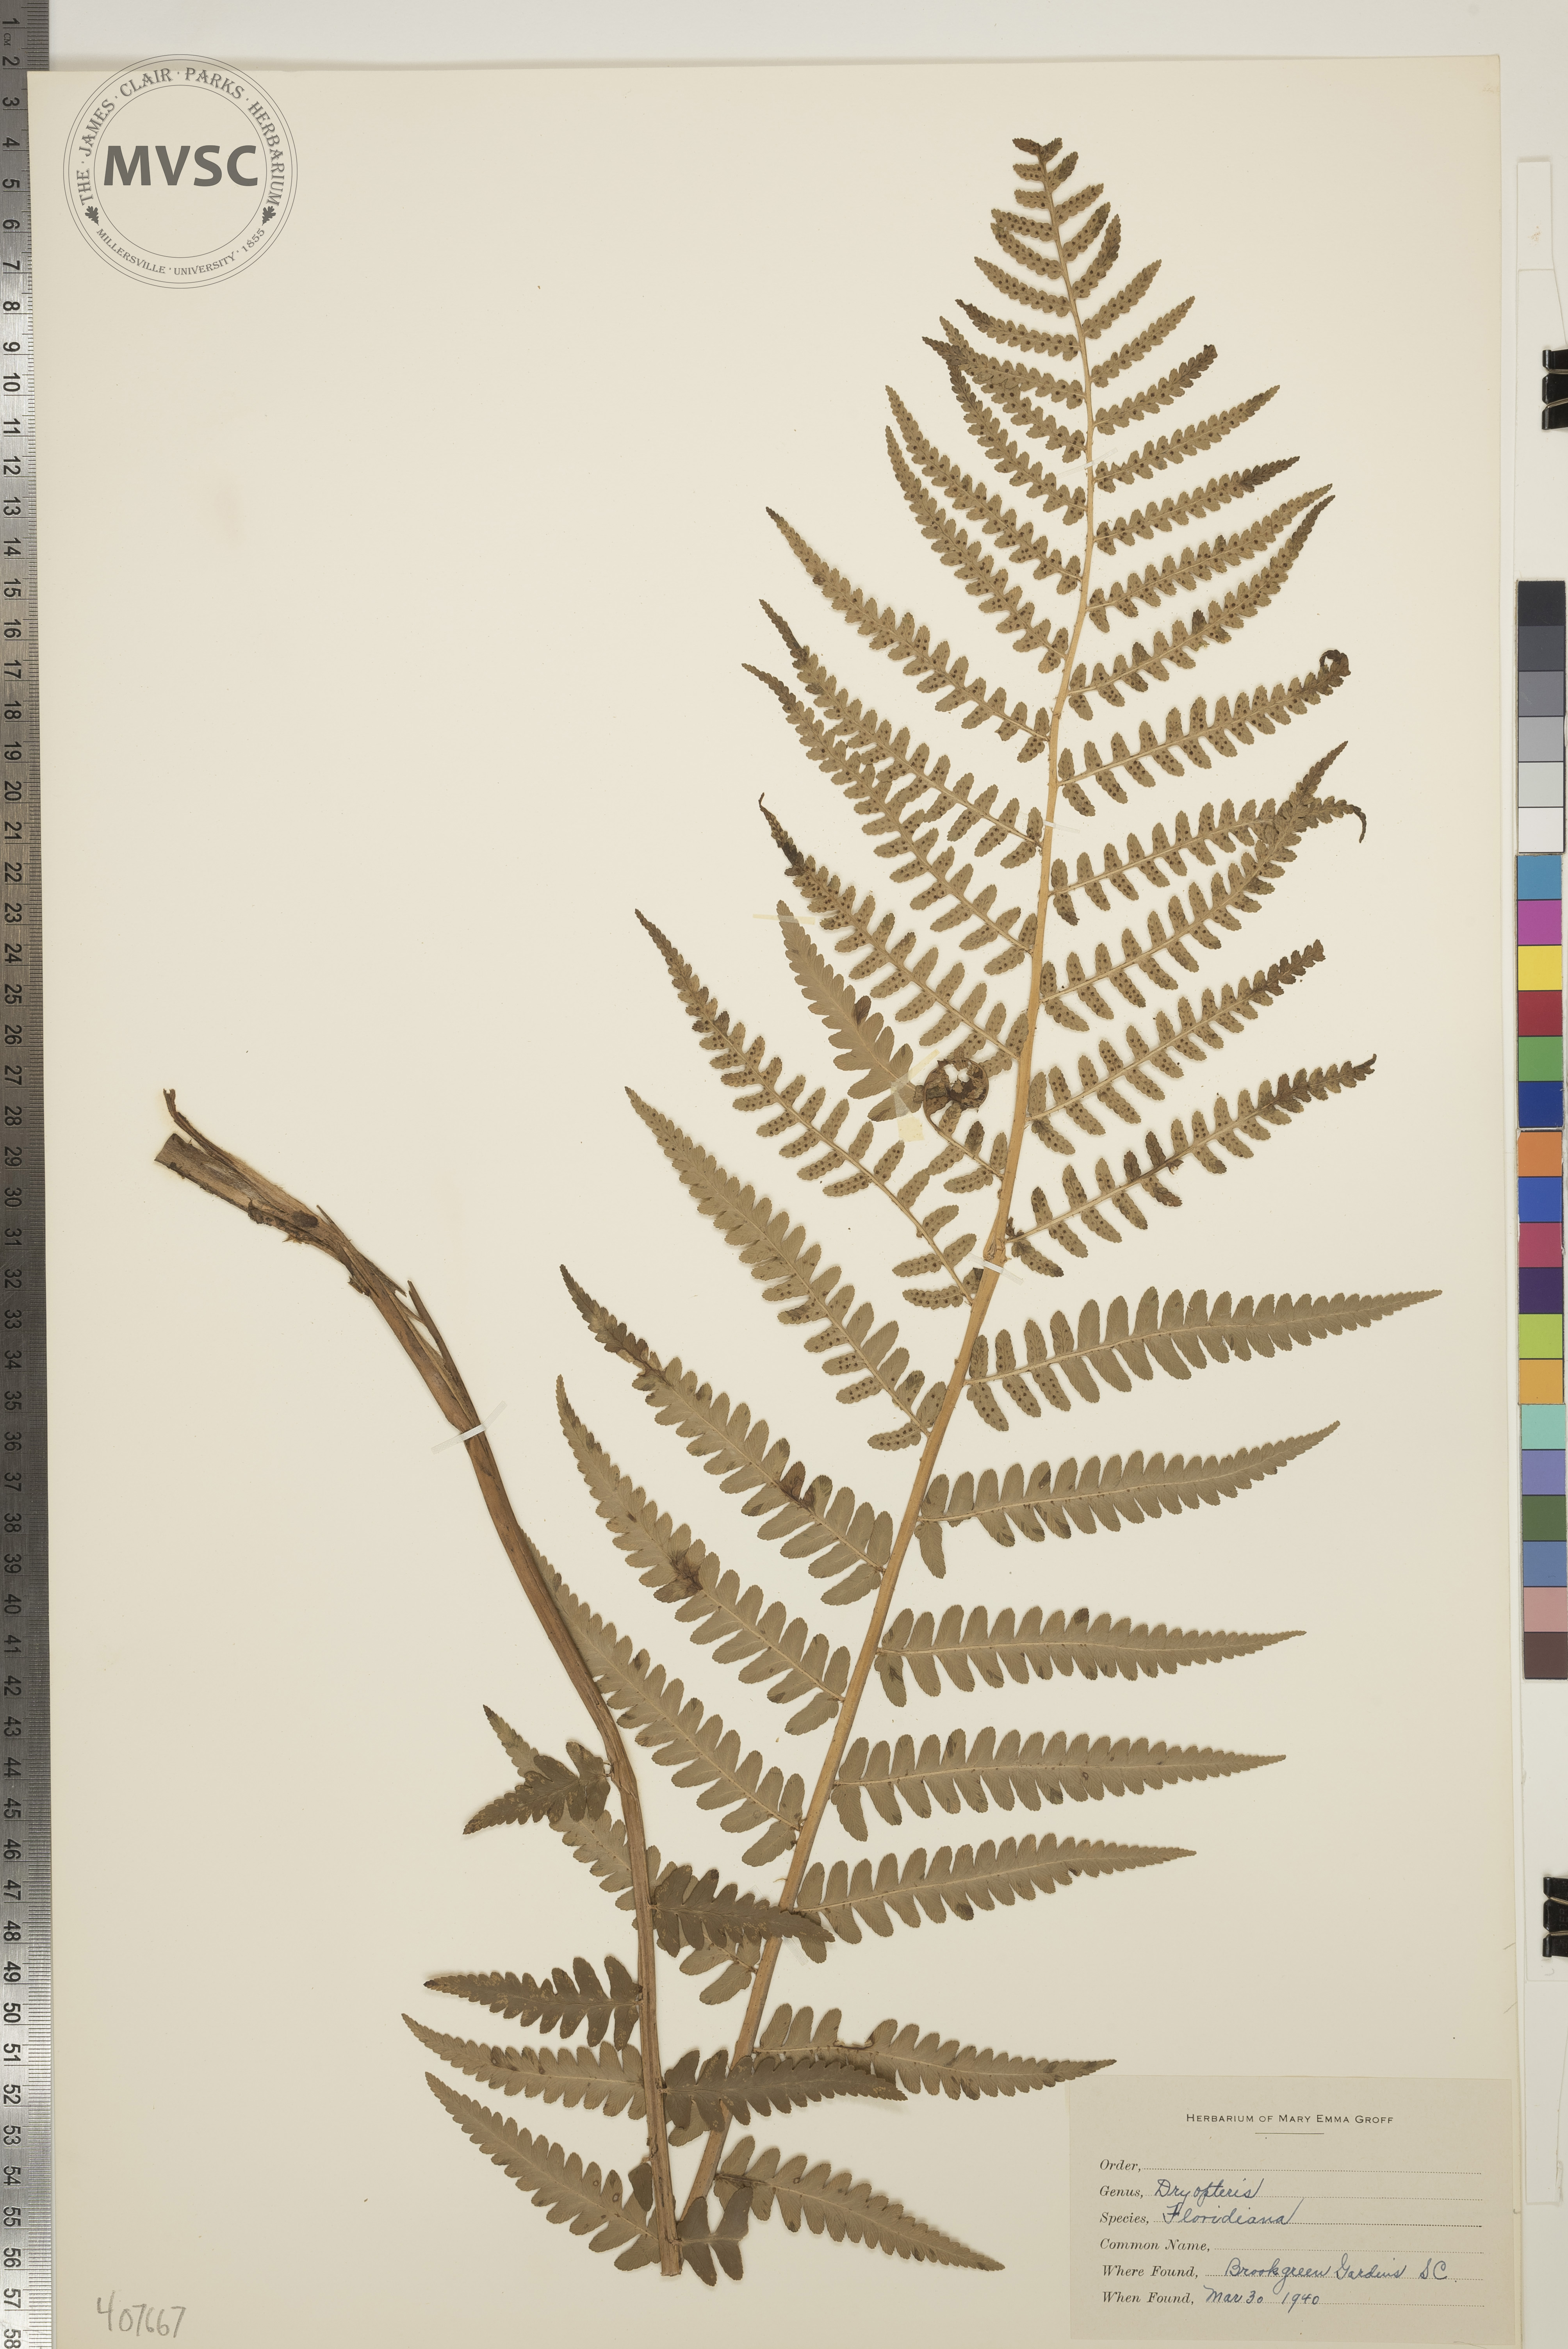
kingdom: Plantae
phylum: Tracheophyta
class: Polypodiopsida
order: Polypodiales
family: Dryopteridaceae
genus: Dryopteris
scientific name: Dryopteris ludoviciana
